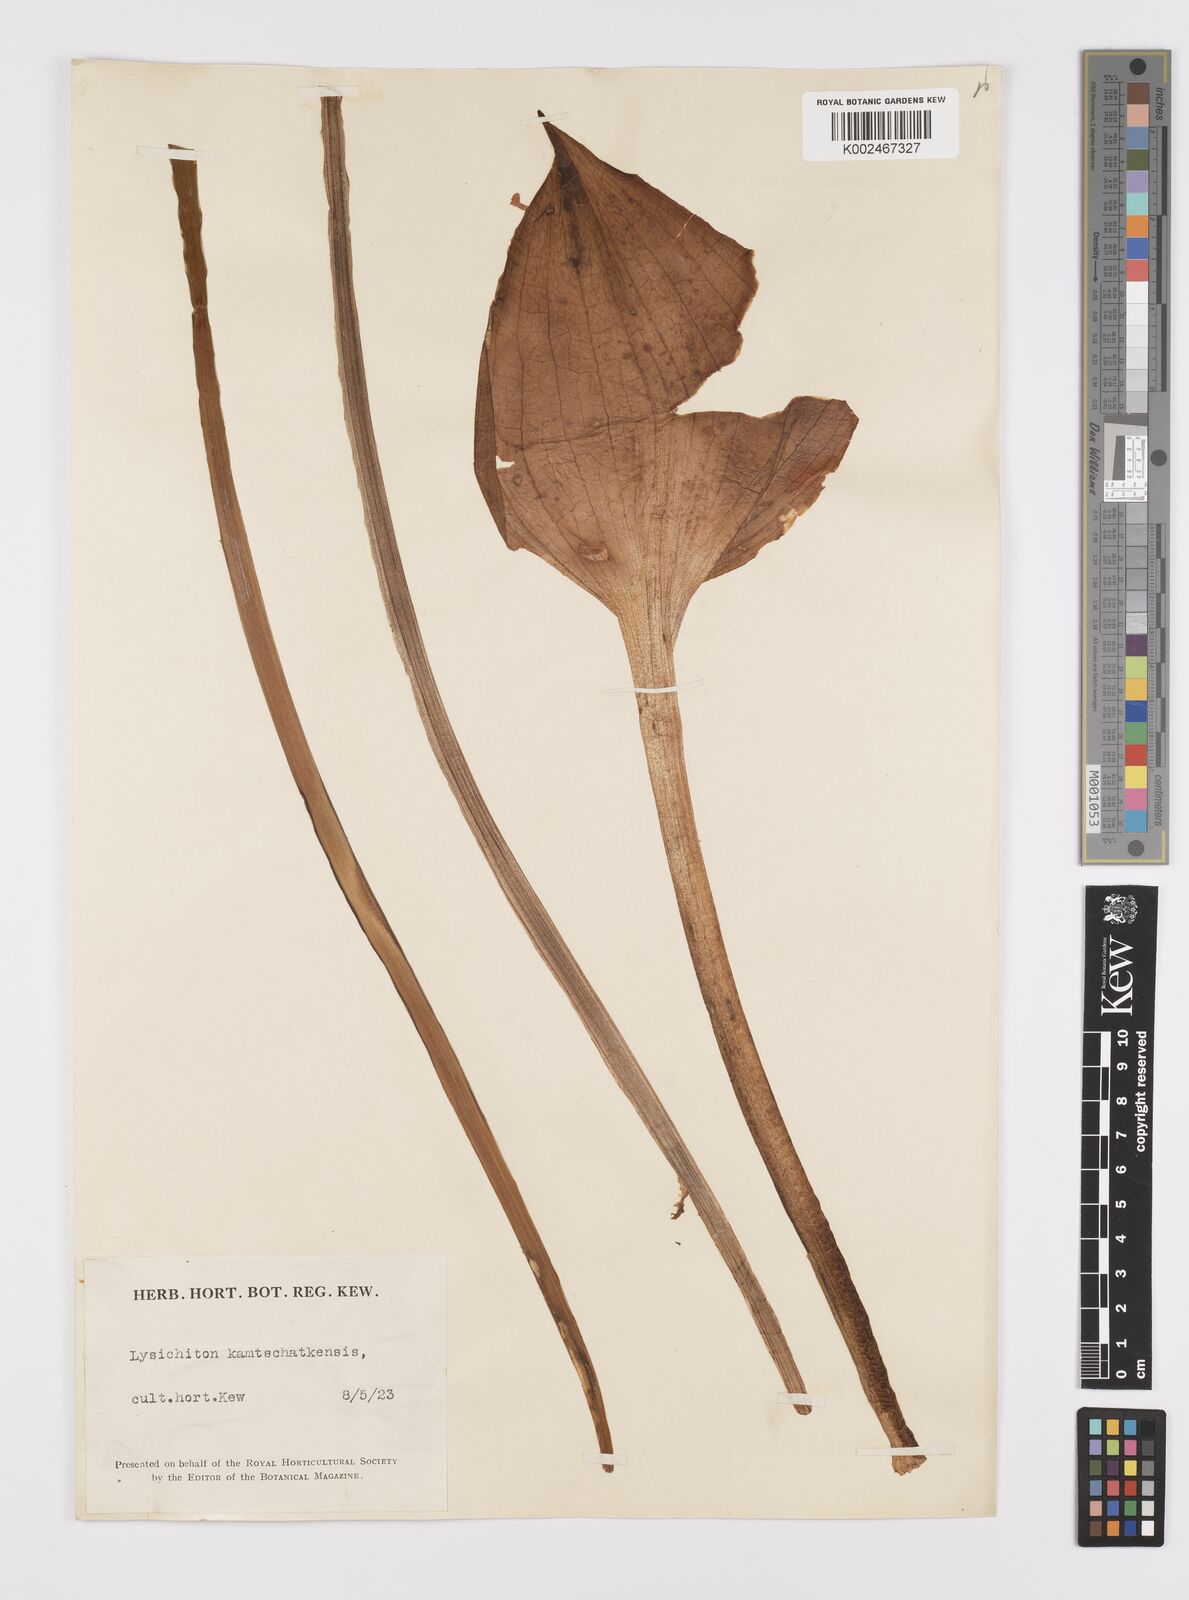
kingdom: Plantae
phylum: Tracheophyta
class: Liliopsida
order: Alismatales
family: Araceae
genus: Lysichiton
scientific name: Lysichiton americanus
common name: American skunk cabbage
